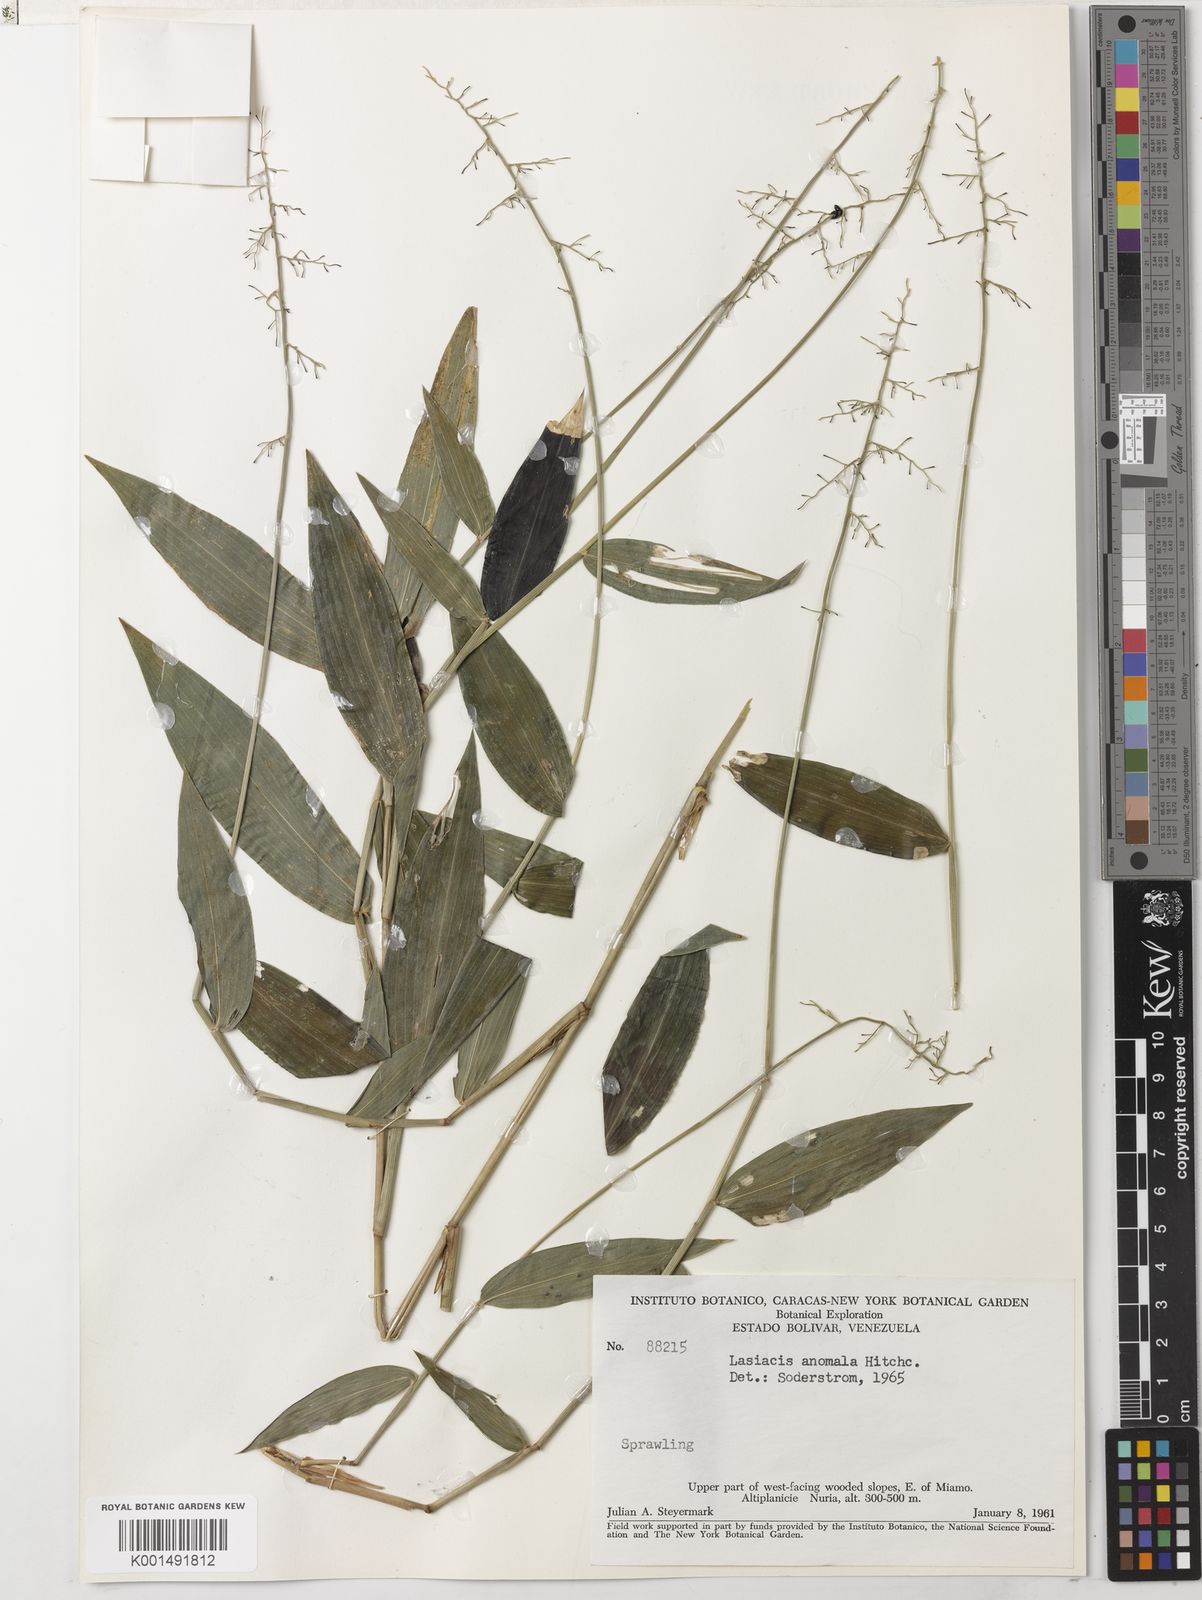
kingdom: Plantae
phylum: Tracheophyta
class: Liliopsida
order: Poales
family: Poaceae
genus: Lasiacis
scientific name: Lasiacis anomala
